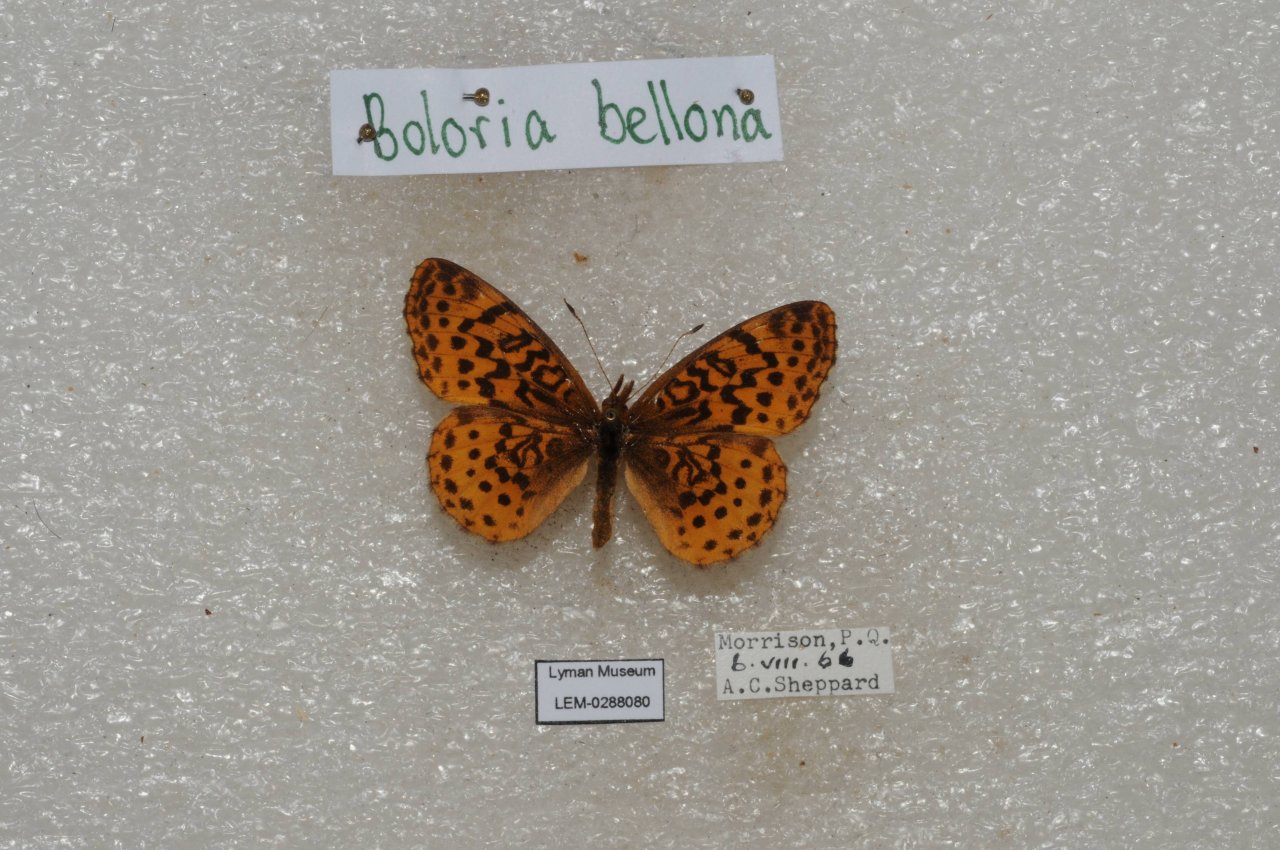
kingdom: Animalia
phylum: Arthropoda
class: Insecta
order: Lepidoptera
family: Nymphalidae
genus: Clossiana
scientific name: Clossiana toddi
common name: Meadow Fritillary
